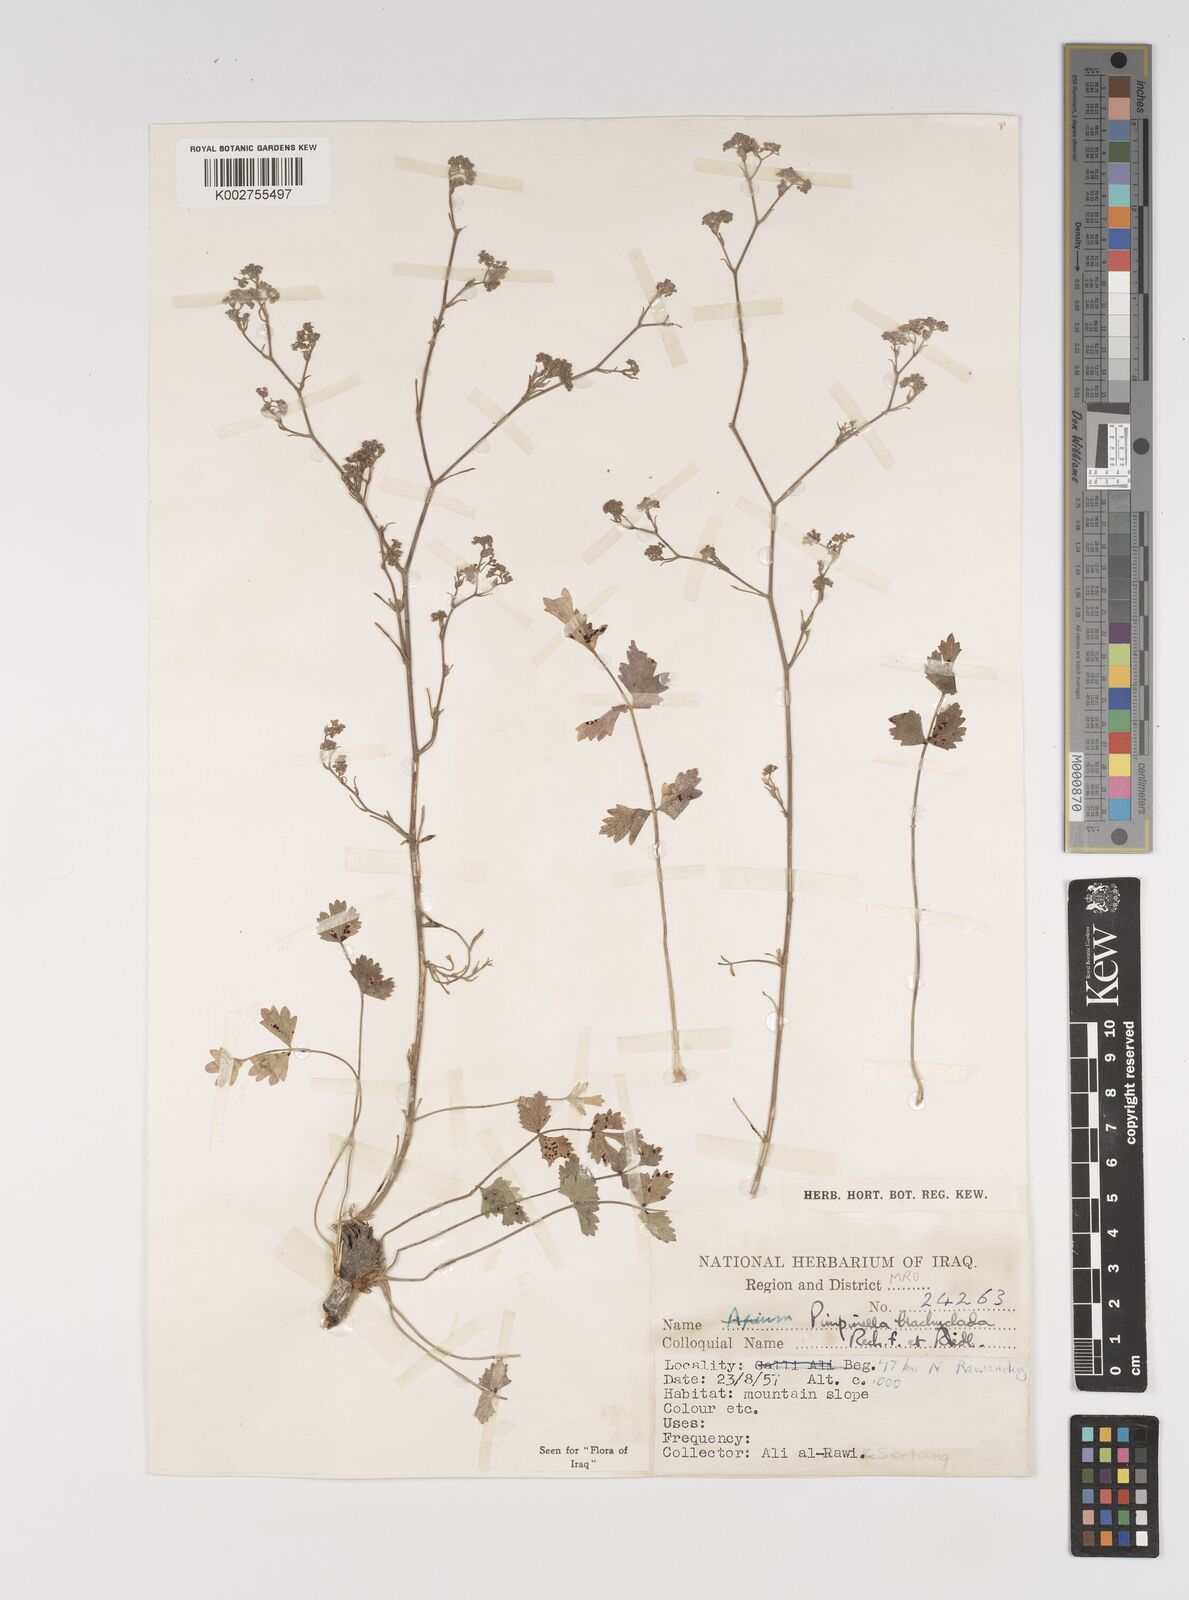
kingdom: Plantae
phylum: Tracheophyta
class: Magnoliopsida
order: Apiales
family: Apiaceae
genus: Pimpinella
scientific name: Pimpinella brachyclada
